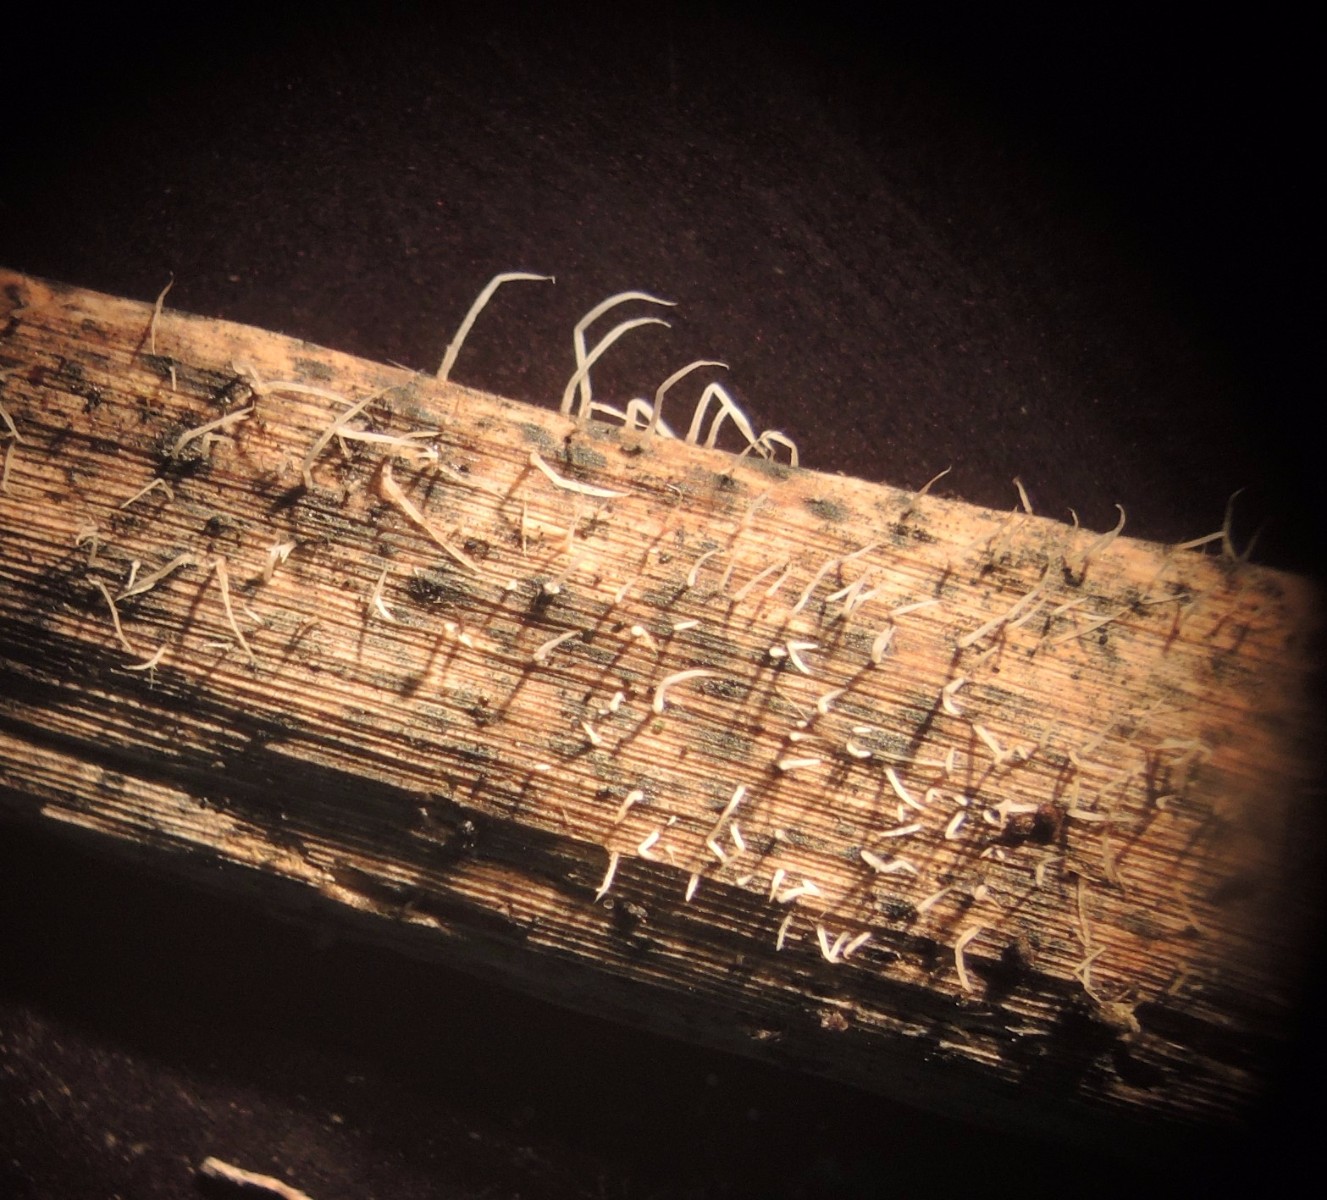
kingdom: Fungi
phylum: Basidiomycota
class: Agaricomycetes
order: Agaricales
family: Pterulaceae
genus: Pterulicium
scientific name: Pterulicium gracile
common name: trådformet fjerkølle
